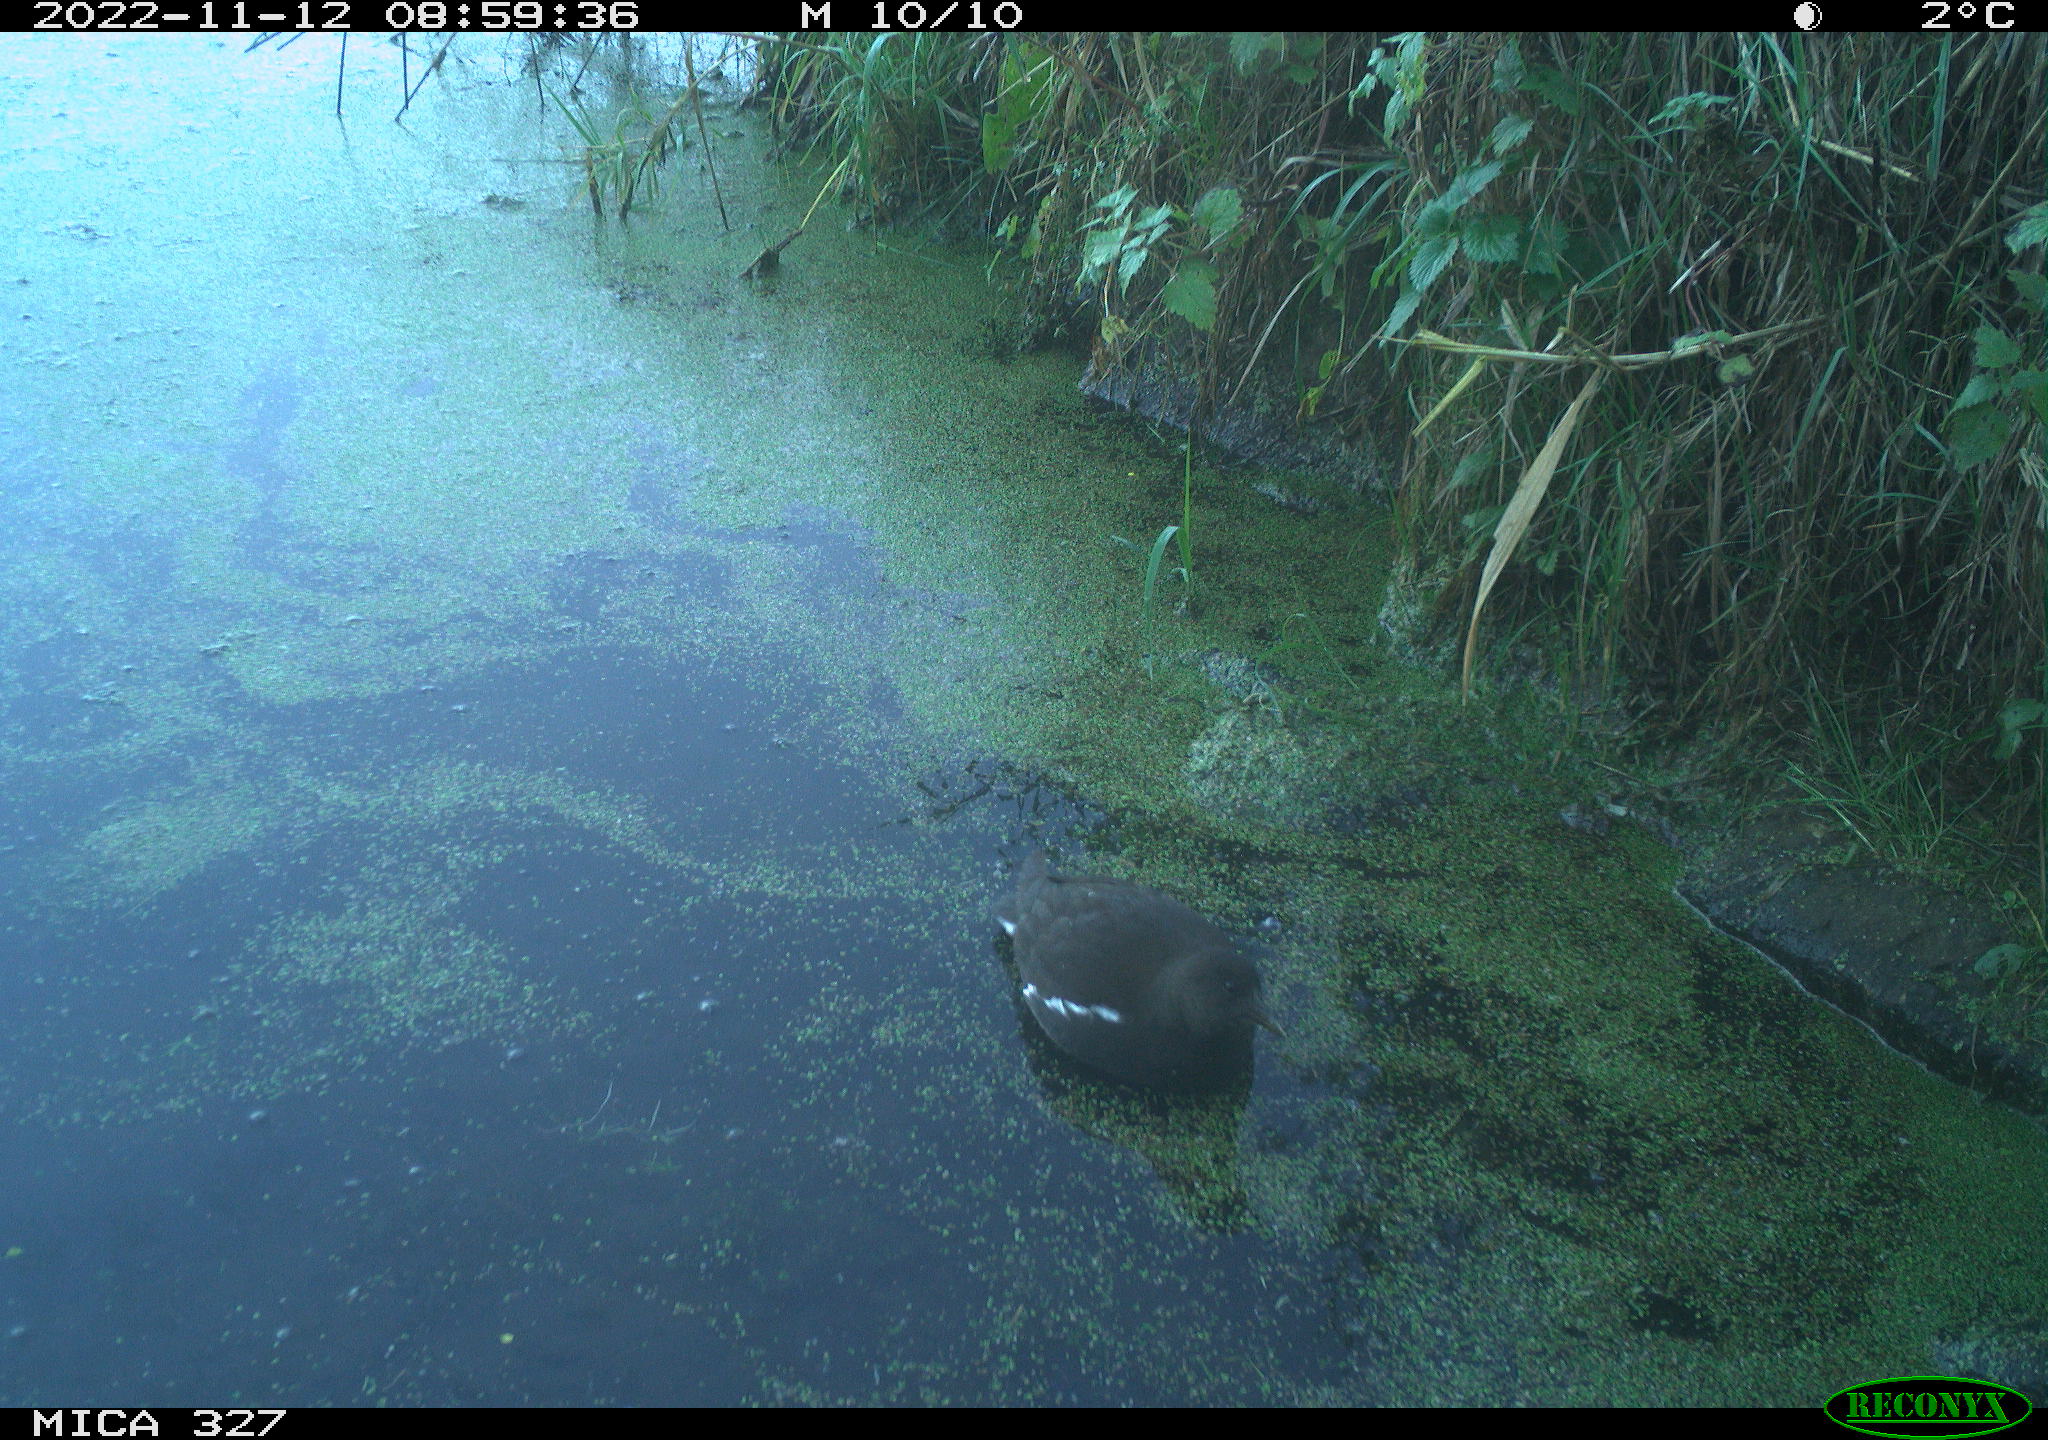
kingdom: Animalia
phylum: Chordata
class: Aves
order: Gruiformes
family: Rallidae
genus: Gallinula
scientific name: Gallinula chloropus
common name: Common moorhen
